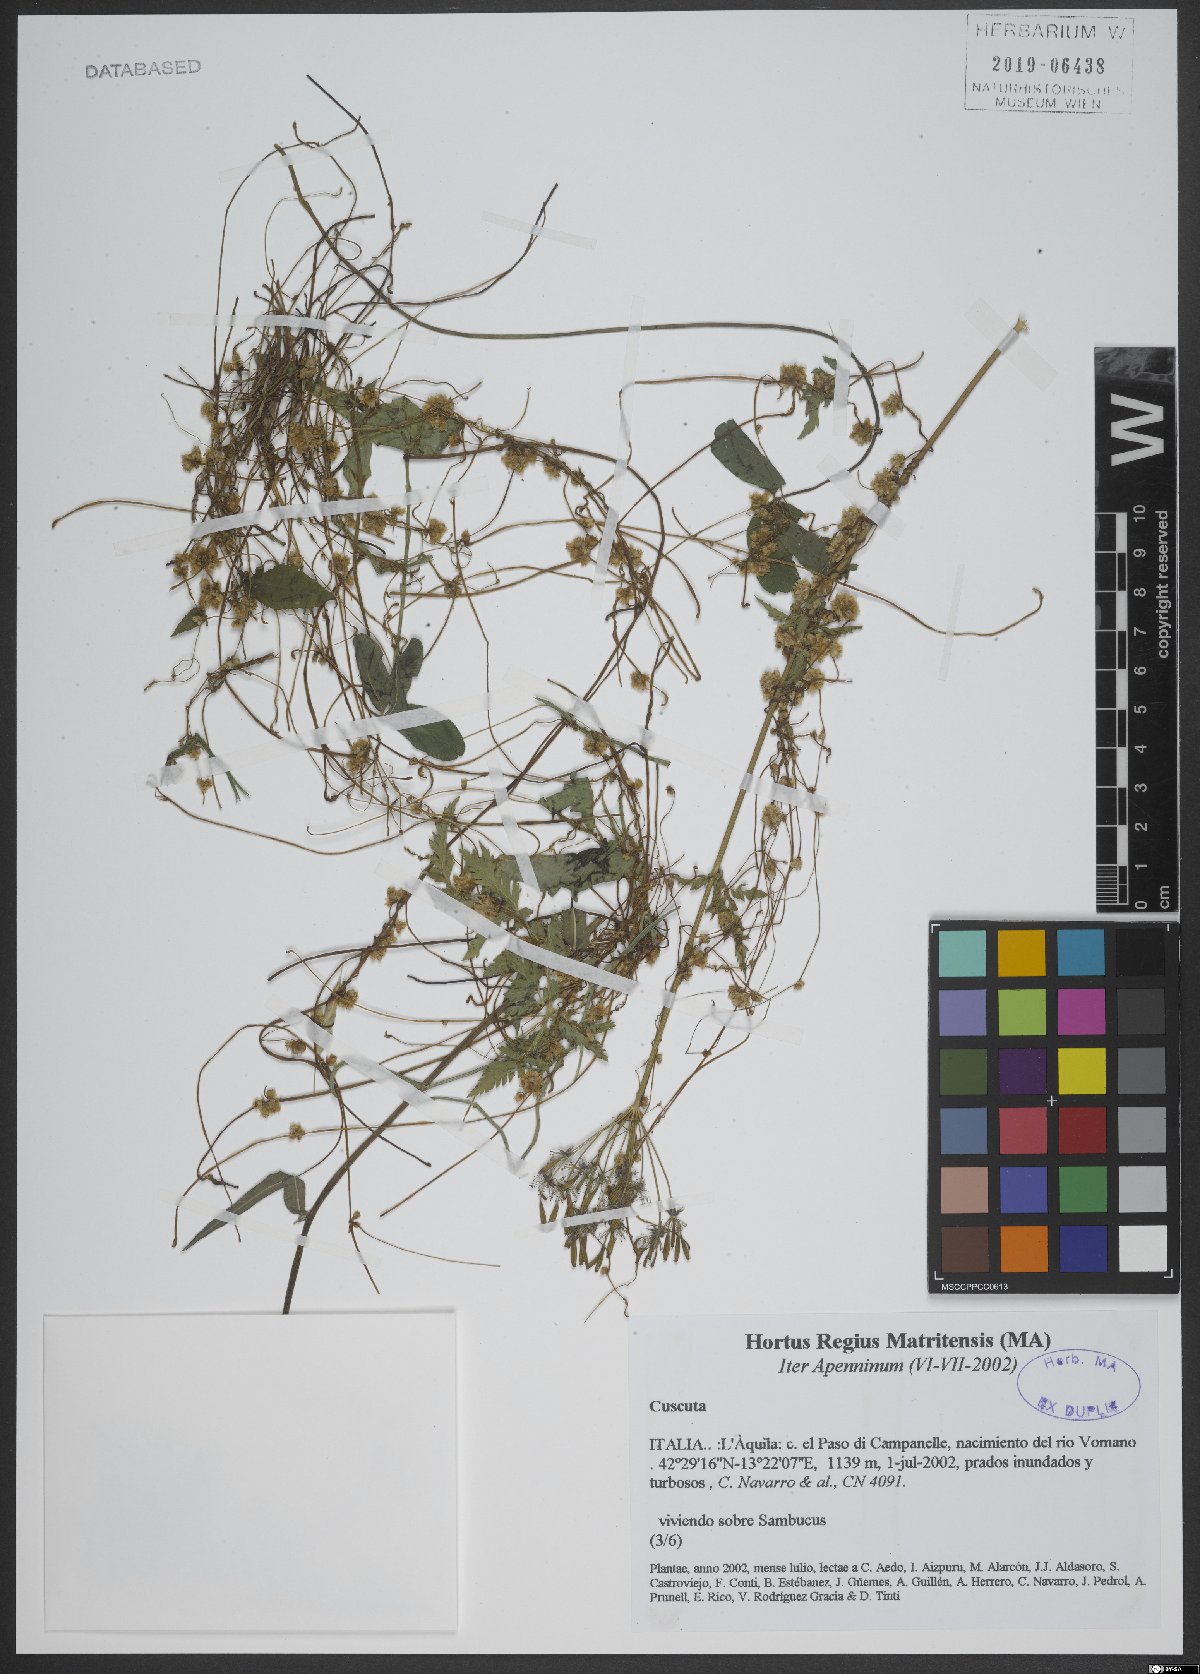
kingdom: Plantae
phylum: Tracheophyta
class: Magnoliopsida
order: Solanales
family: Convolvulaceae
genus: Cuscuta
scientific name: Cuscuta
